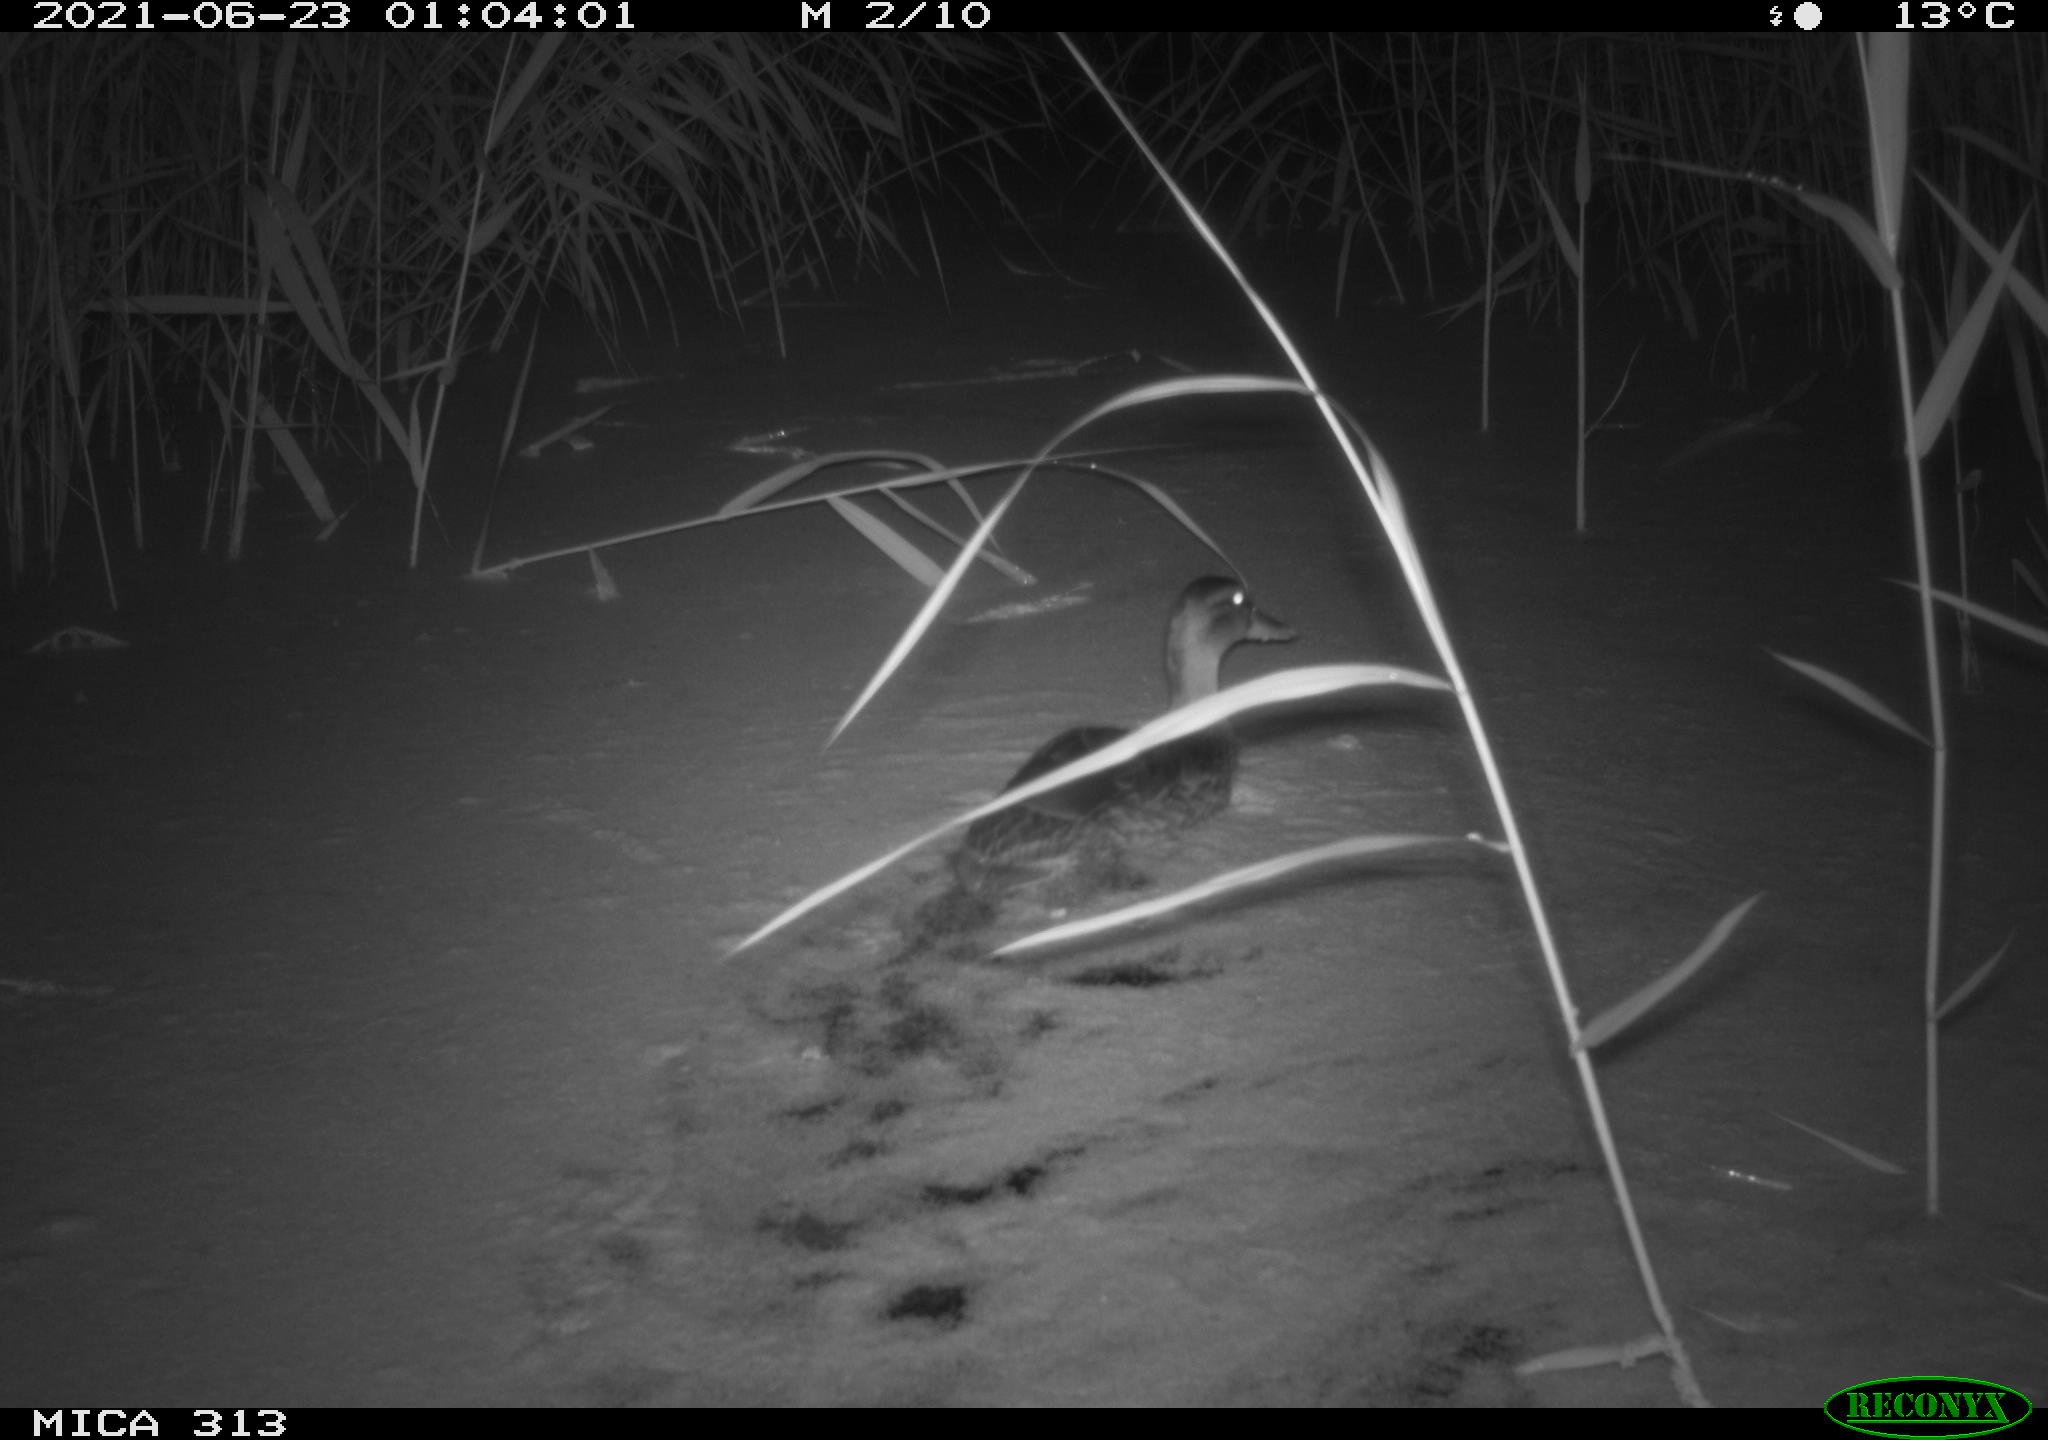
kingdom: Animalia
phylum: Chordata
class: Aves
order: Anseriformes
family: Anatidae
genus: Anas
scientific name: Anas
